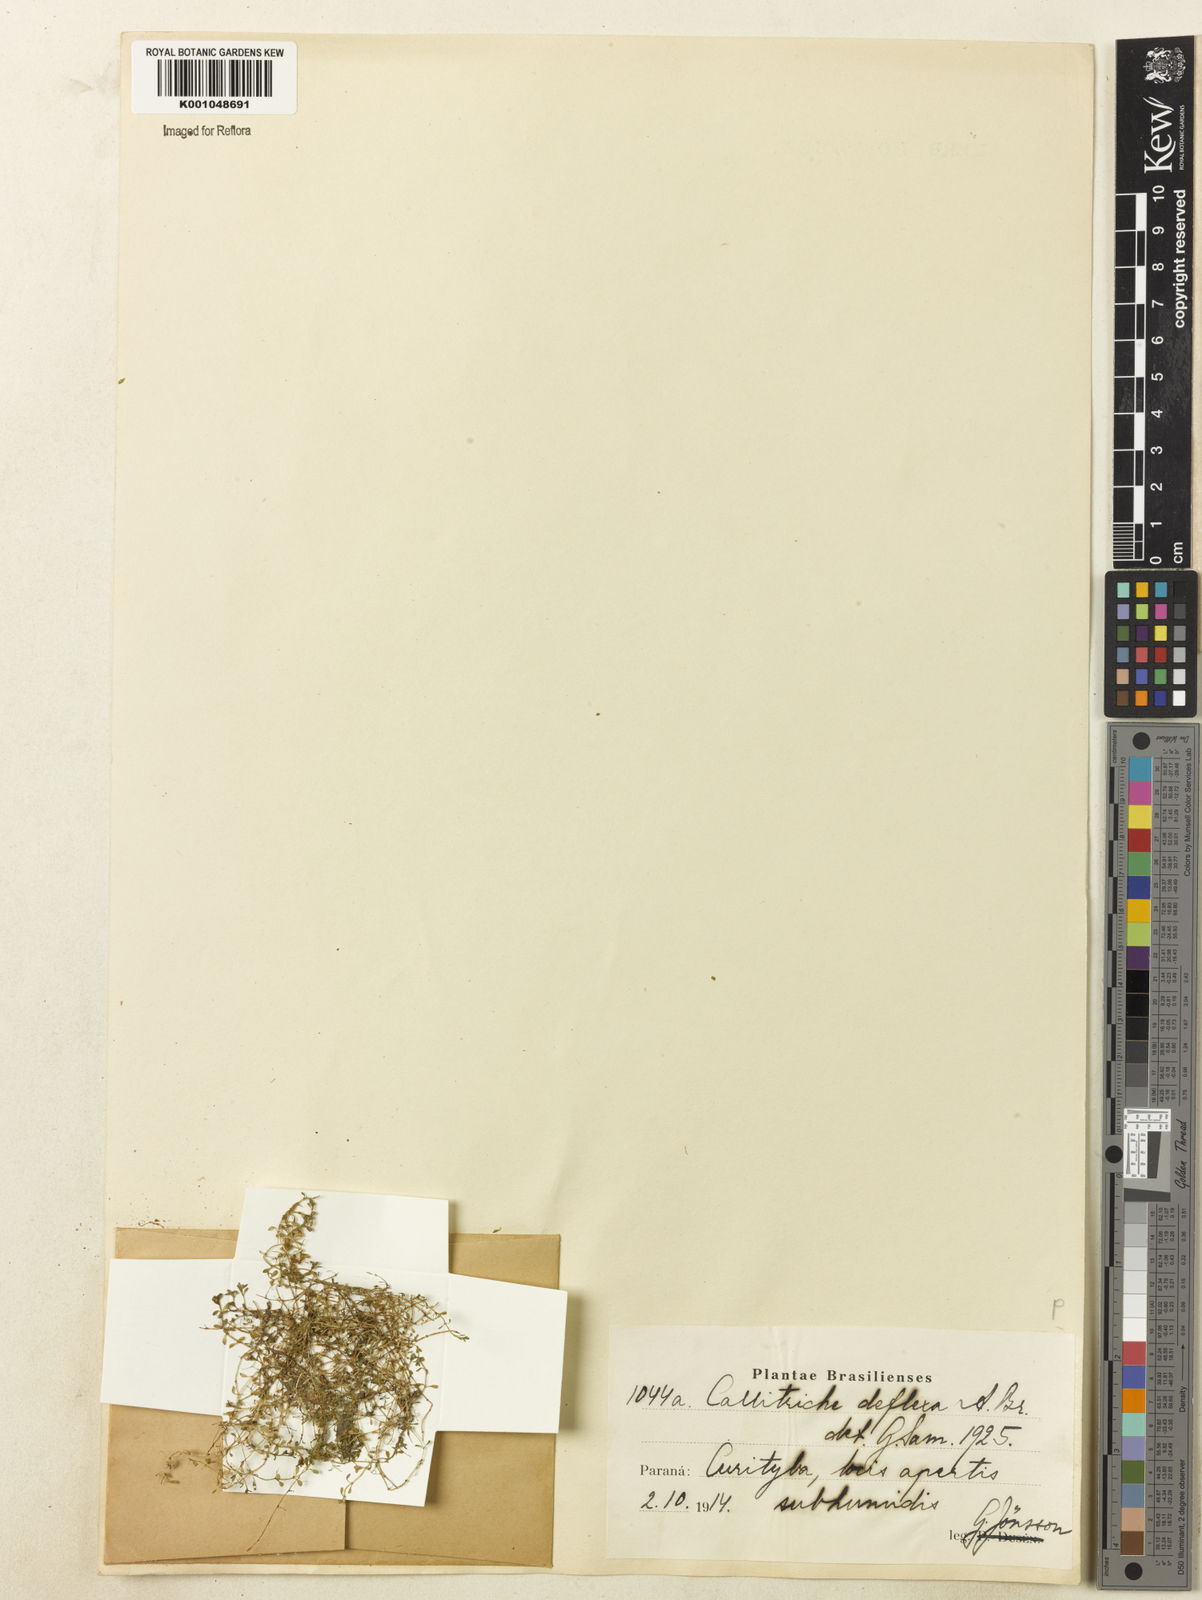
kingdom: Plantae
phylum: Tracheophyta
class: Magnoliopsida
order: Lamiales
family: Plantaginaceae
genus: Callitriche
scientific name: Callitriche deflexa
